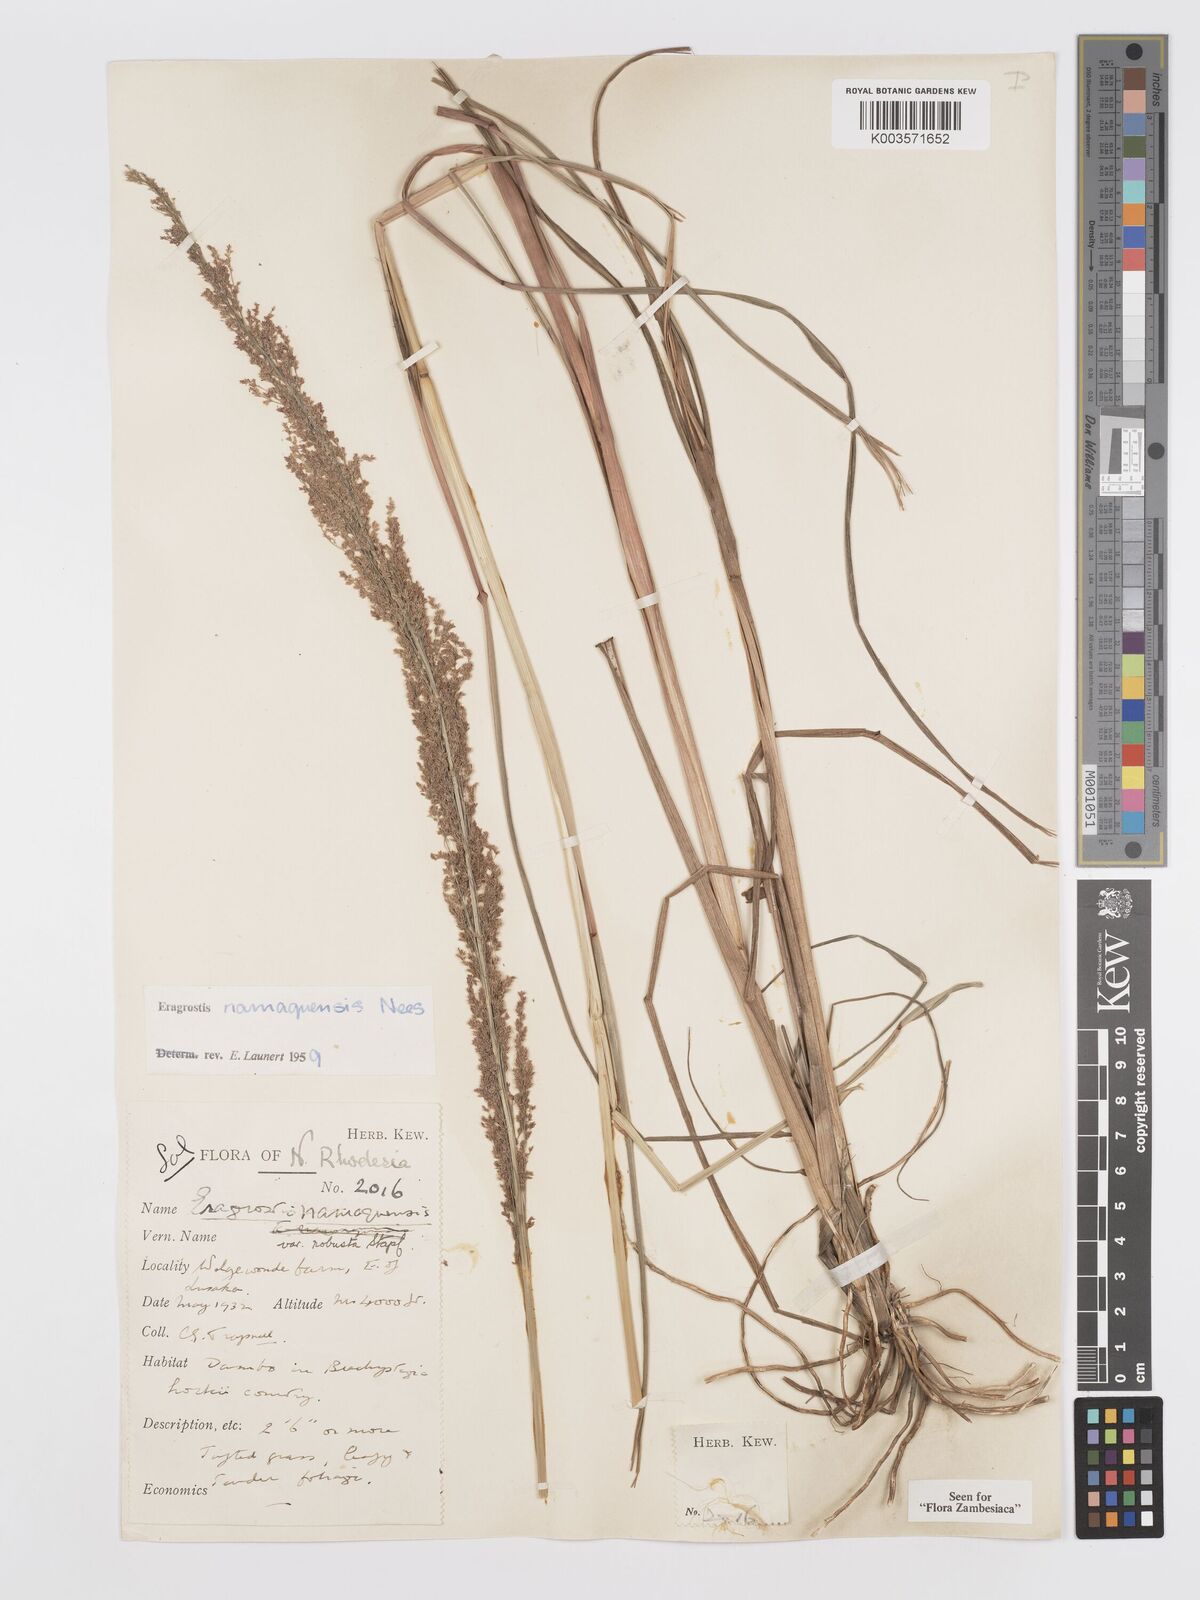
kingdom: Plantae
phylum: Tracheophyta
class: Liliopsida
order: Poales
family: Poaceae
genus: Eragrostis
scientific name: Eragrostis japonica
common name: Pond lovegrass
